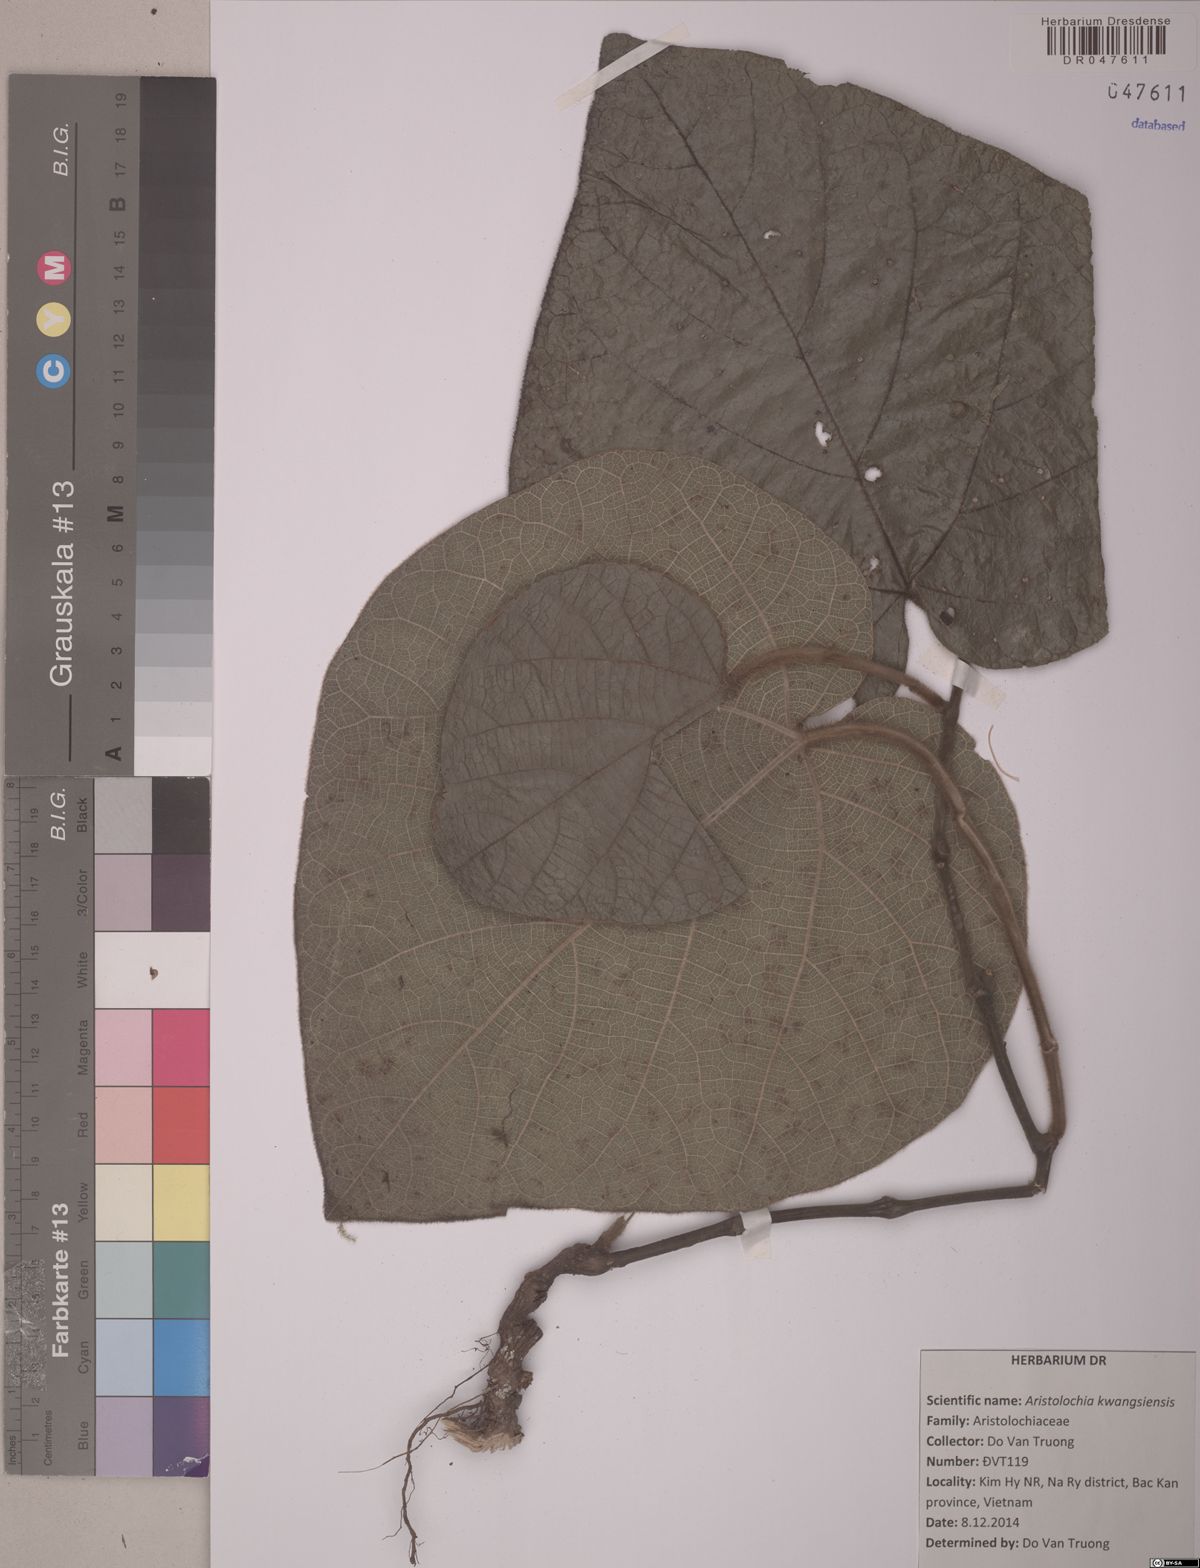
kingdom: Plantae
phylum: Tracheophyta
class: Magnoliopsida
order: Piperales
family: Aristolochiaceae
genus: Aristolochia
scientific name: Aristolochia kwangsiensis
